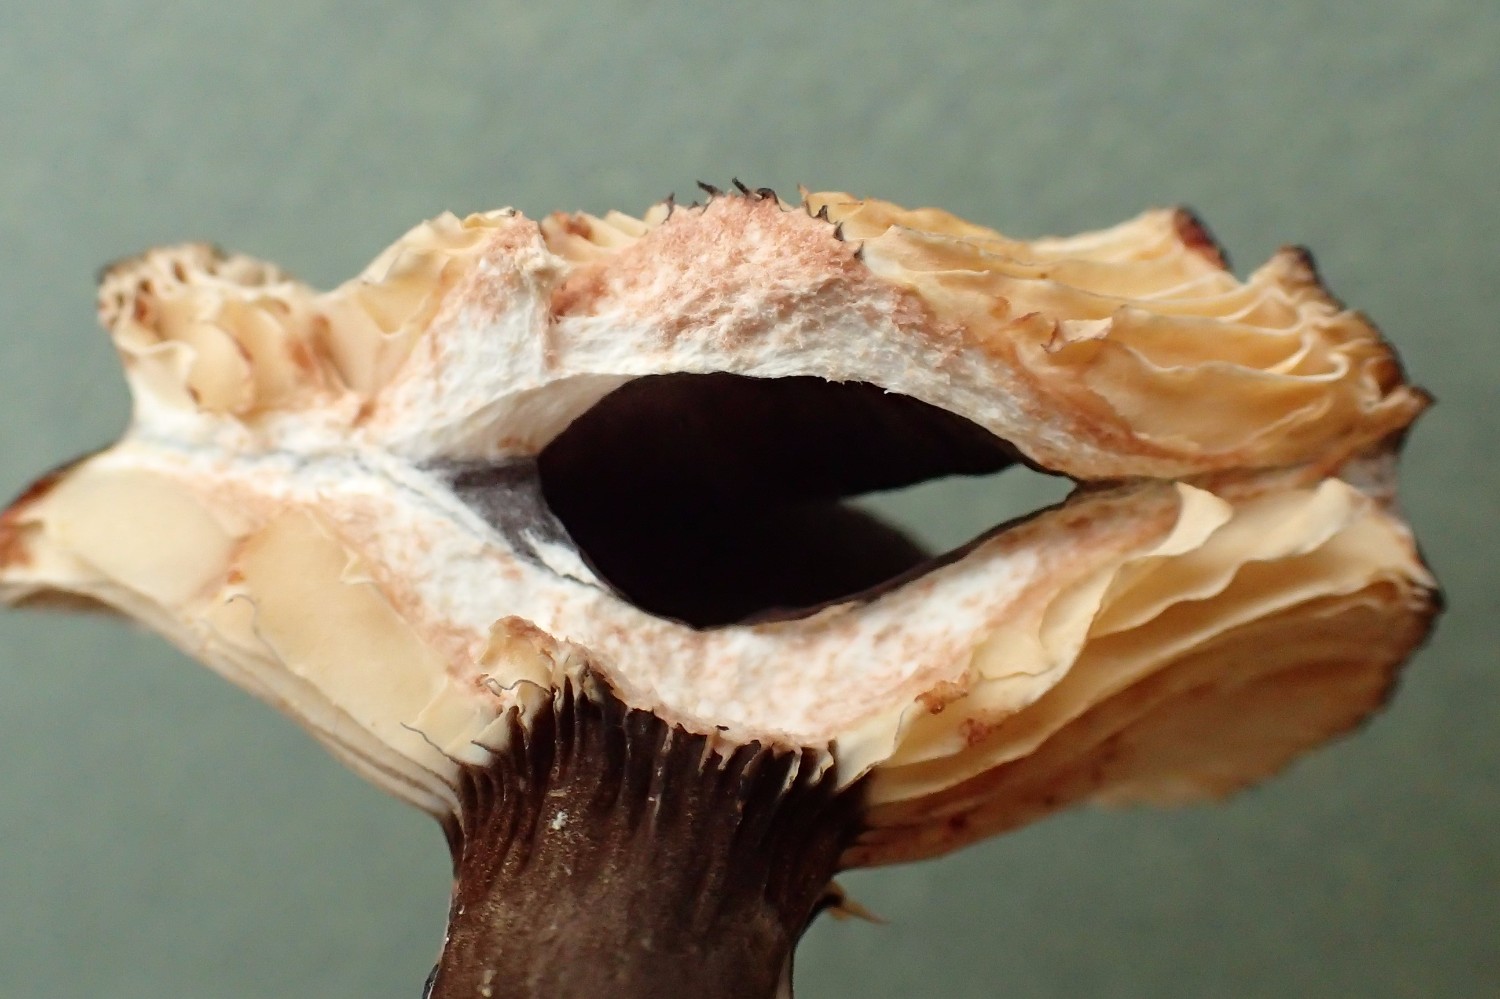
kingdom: Fungi
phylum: Basidiomycota
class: Agaricomycetes
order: Russulales
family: Russulaceae
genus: Lactarius
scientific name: Lactarius lignyotus
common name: fløjls-mælkehat
